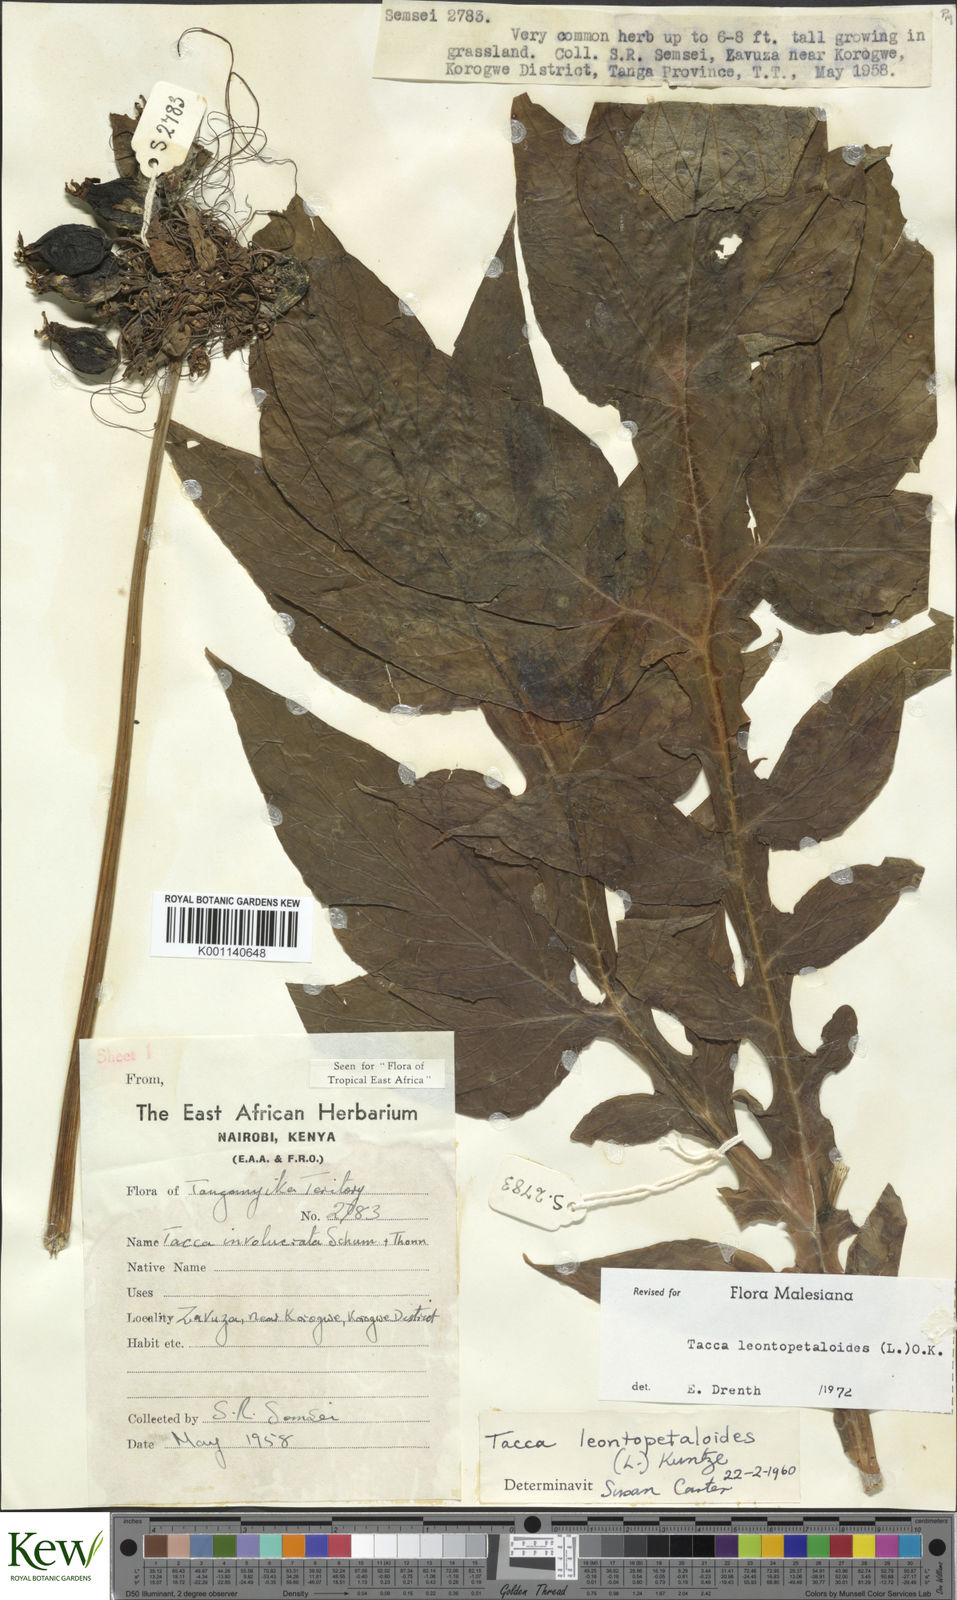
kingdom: Plantae
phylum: Tracheophyta
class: Liliopsida
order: Dioscoreales
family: Dioscoreaceae
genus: Tacca
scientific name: Tacca leontopetaloides
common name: Arrowroot
